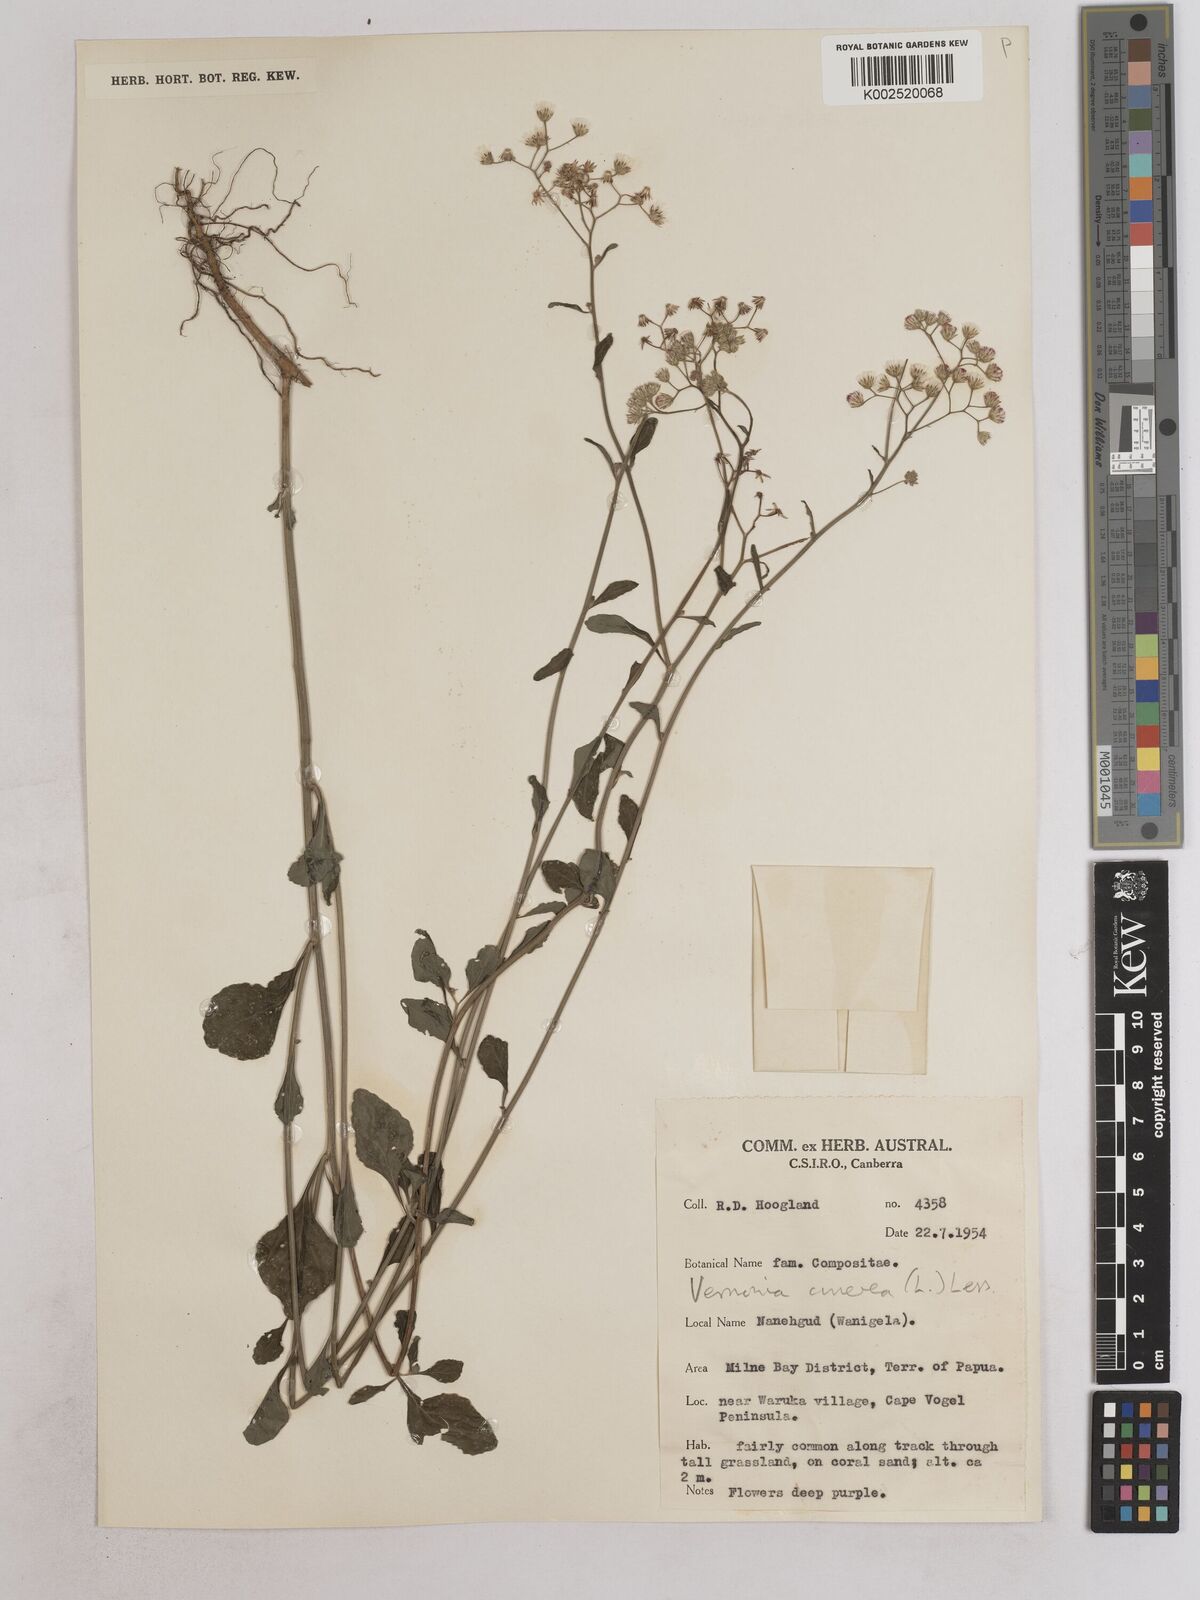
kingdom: Plantae
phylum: Tracheophyta
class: Magnoliopsida
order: Asterales
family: Asteraceae
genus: Cyanthillium
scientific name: Cyanthillium cinereum
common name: Little ironweed
